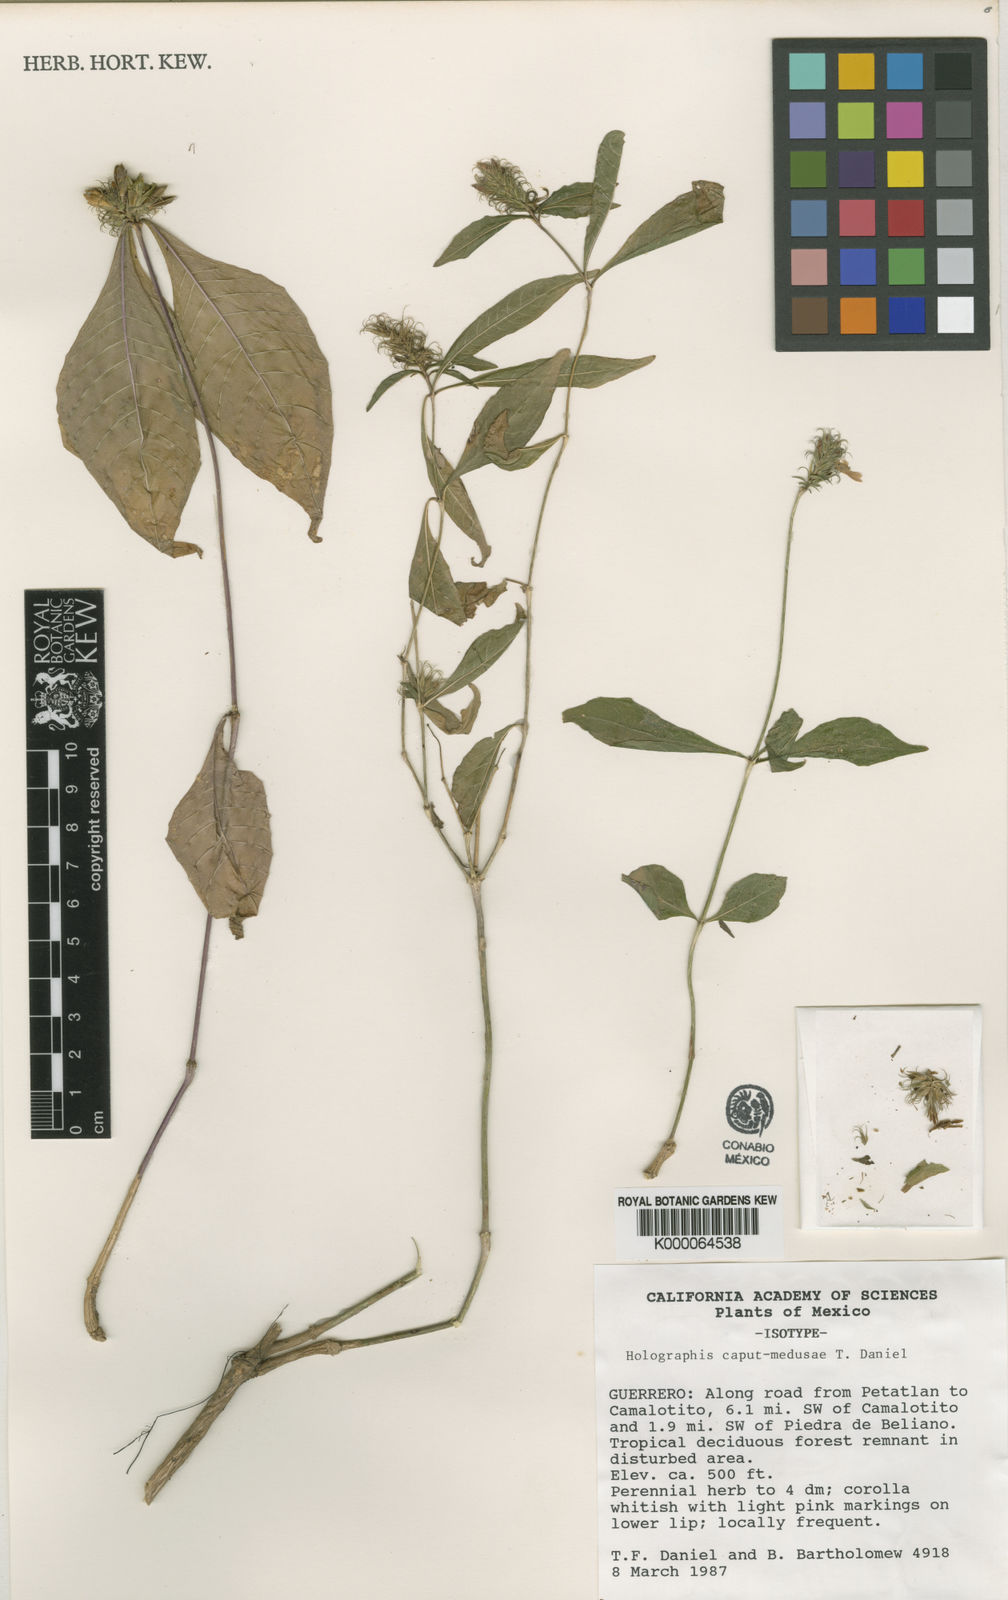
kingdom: Plantae
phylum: Tracheophyta
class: Magnoliopsida
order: Lamiales
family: Acanthaceae
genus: Holographis
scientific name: Holographis caput-medusae
